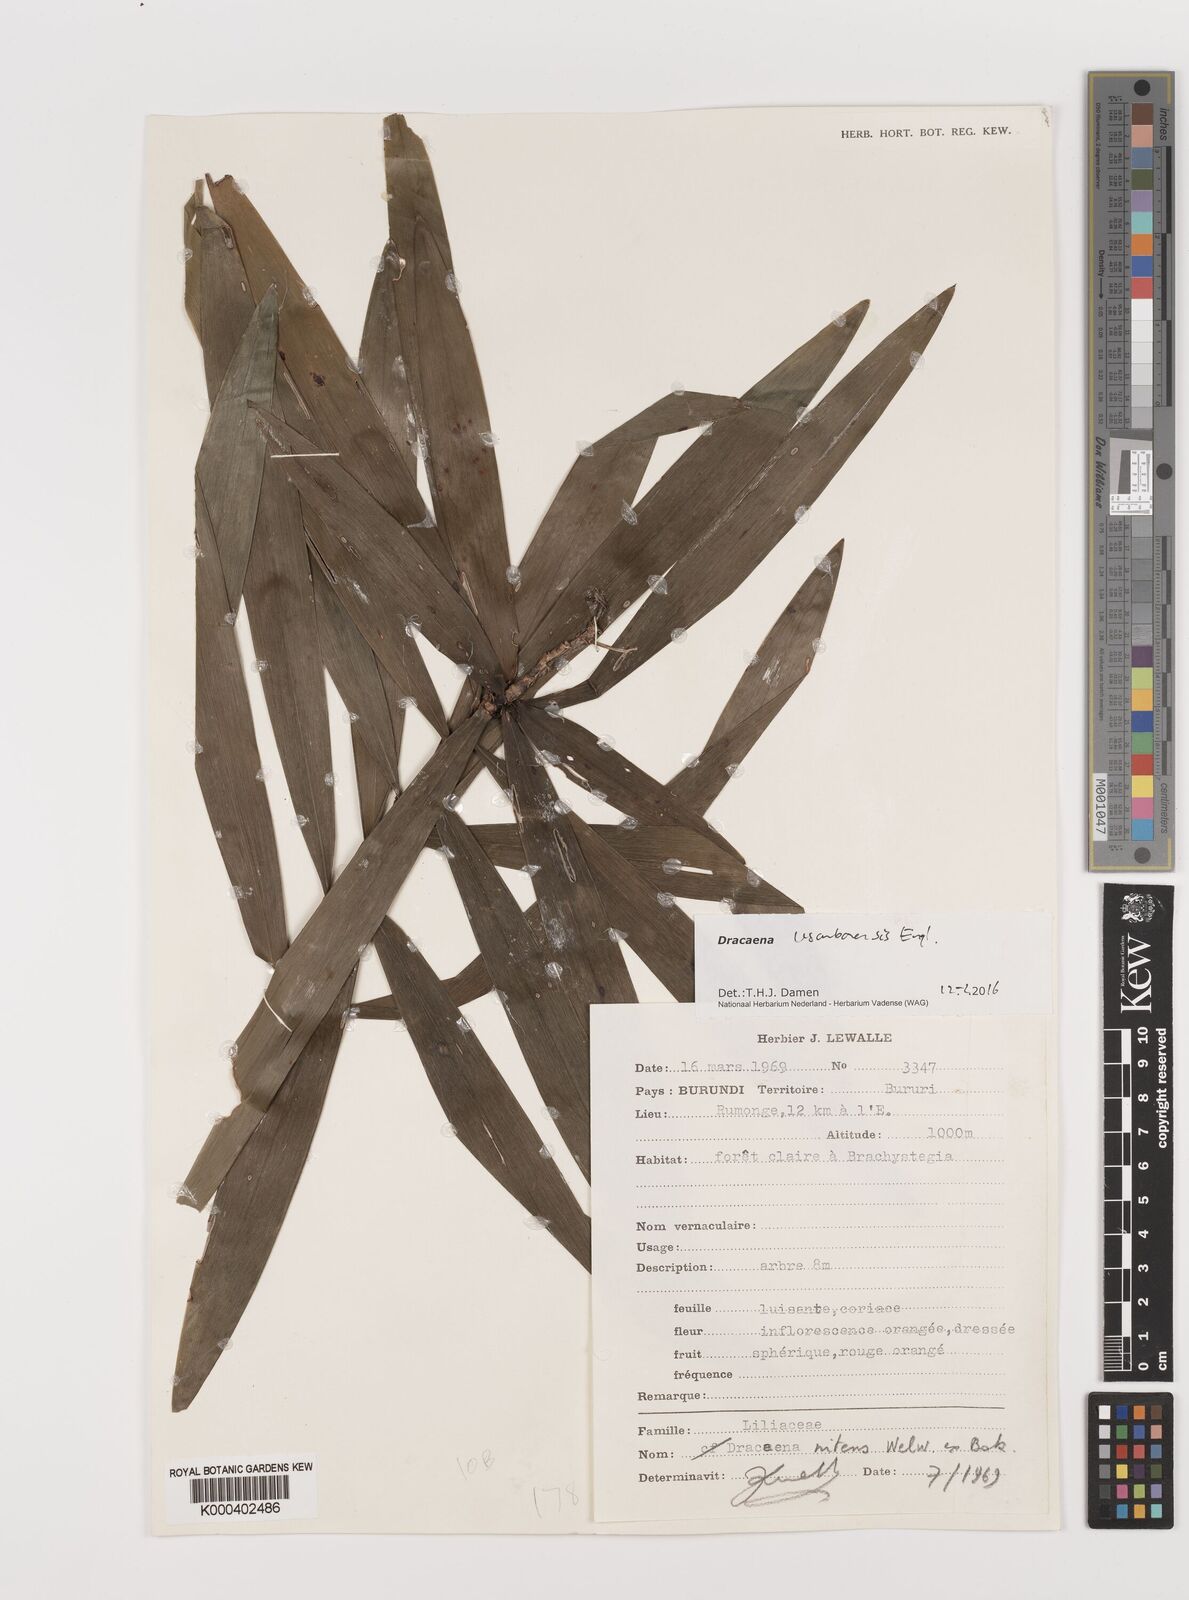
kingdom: Plantae
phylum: Tracheophyta
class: Liliopsida
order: Asparagales
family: Asparagaceae
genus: Dracaena
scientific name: Dracaena usambarensis
